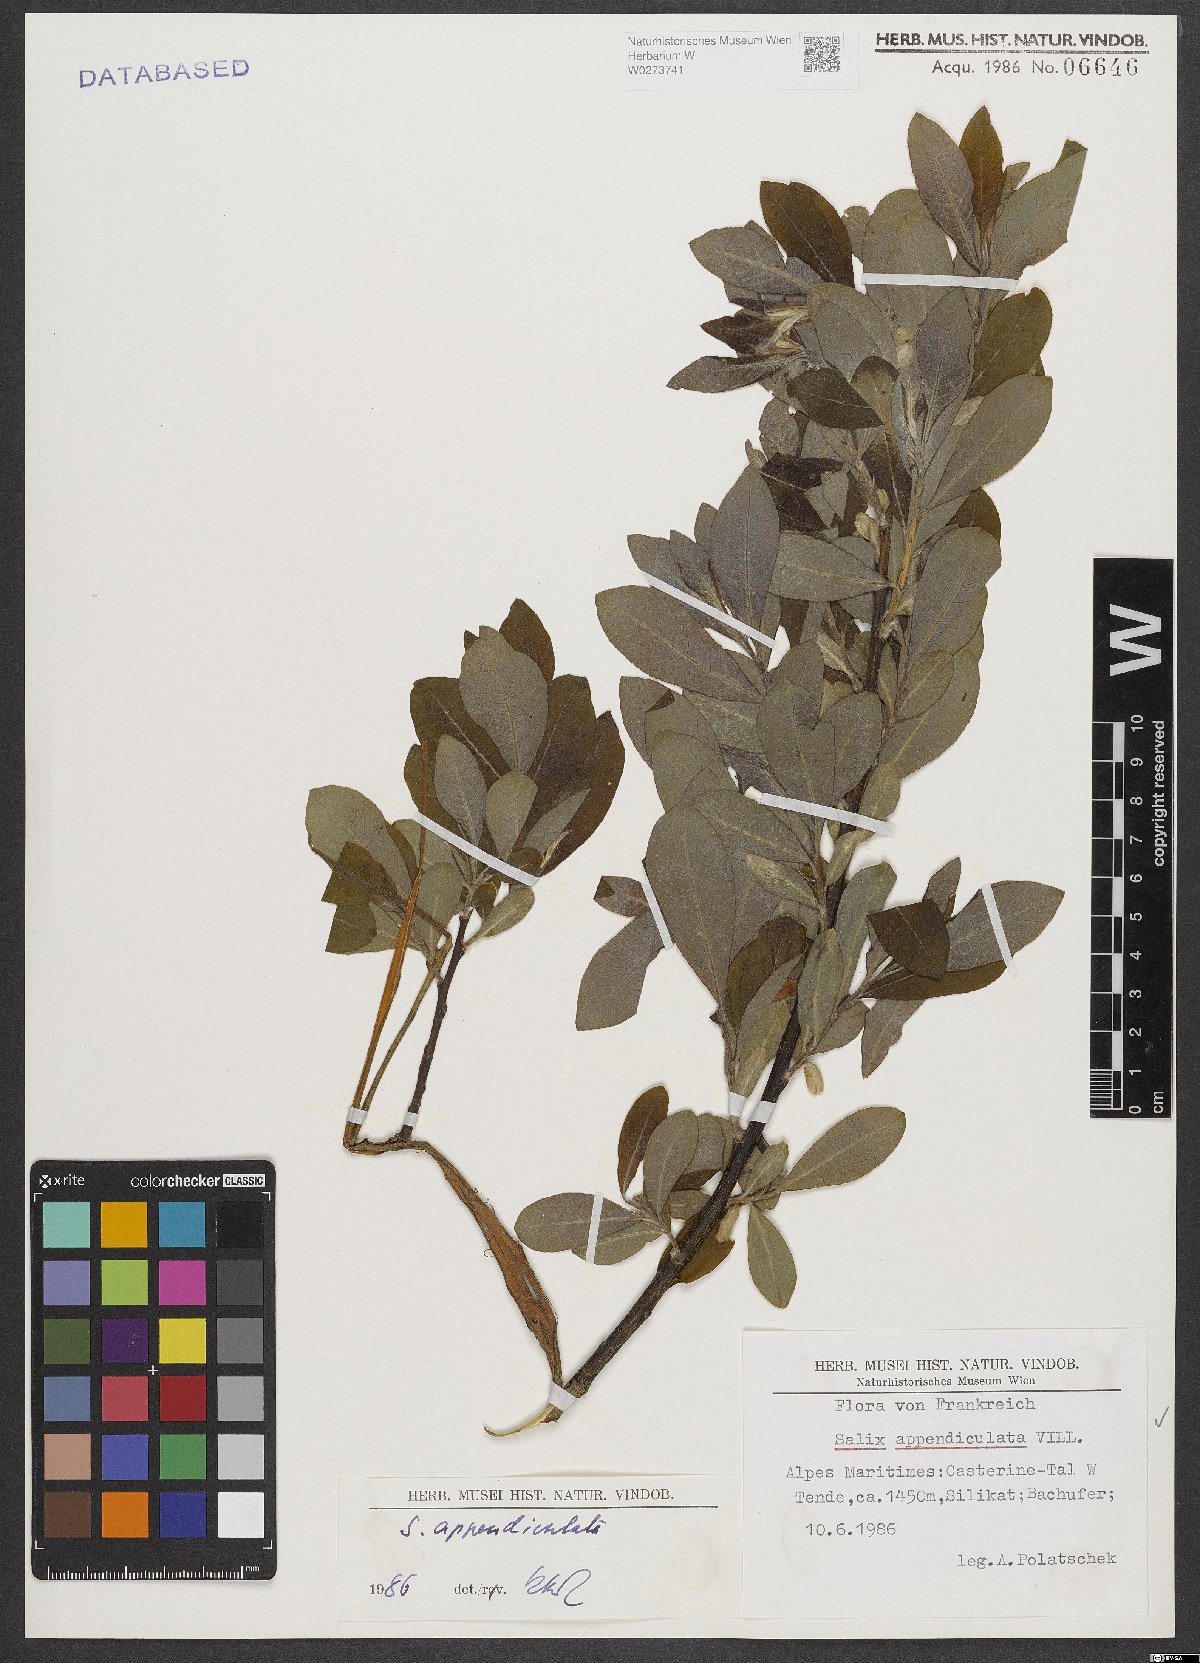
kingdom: Plantae
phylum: Tracheophyta
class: Magnoliopsida
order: Malpighiales
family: Salicaceae
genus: Salix
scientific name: Salix appendiculata
